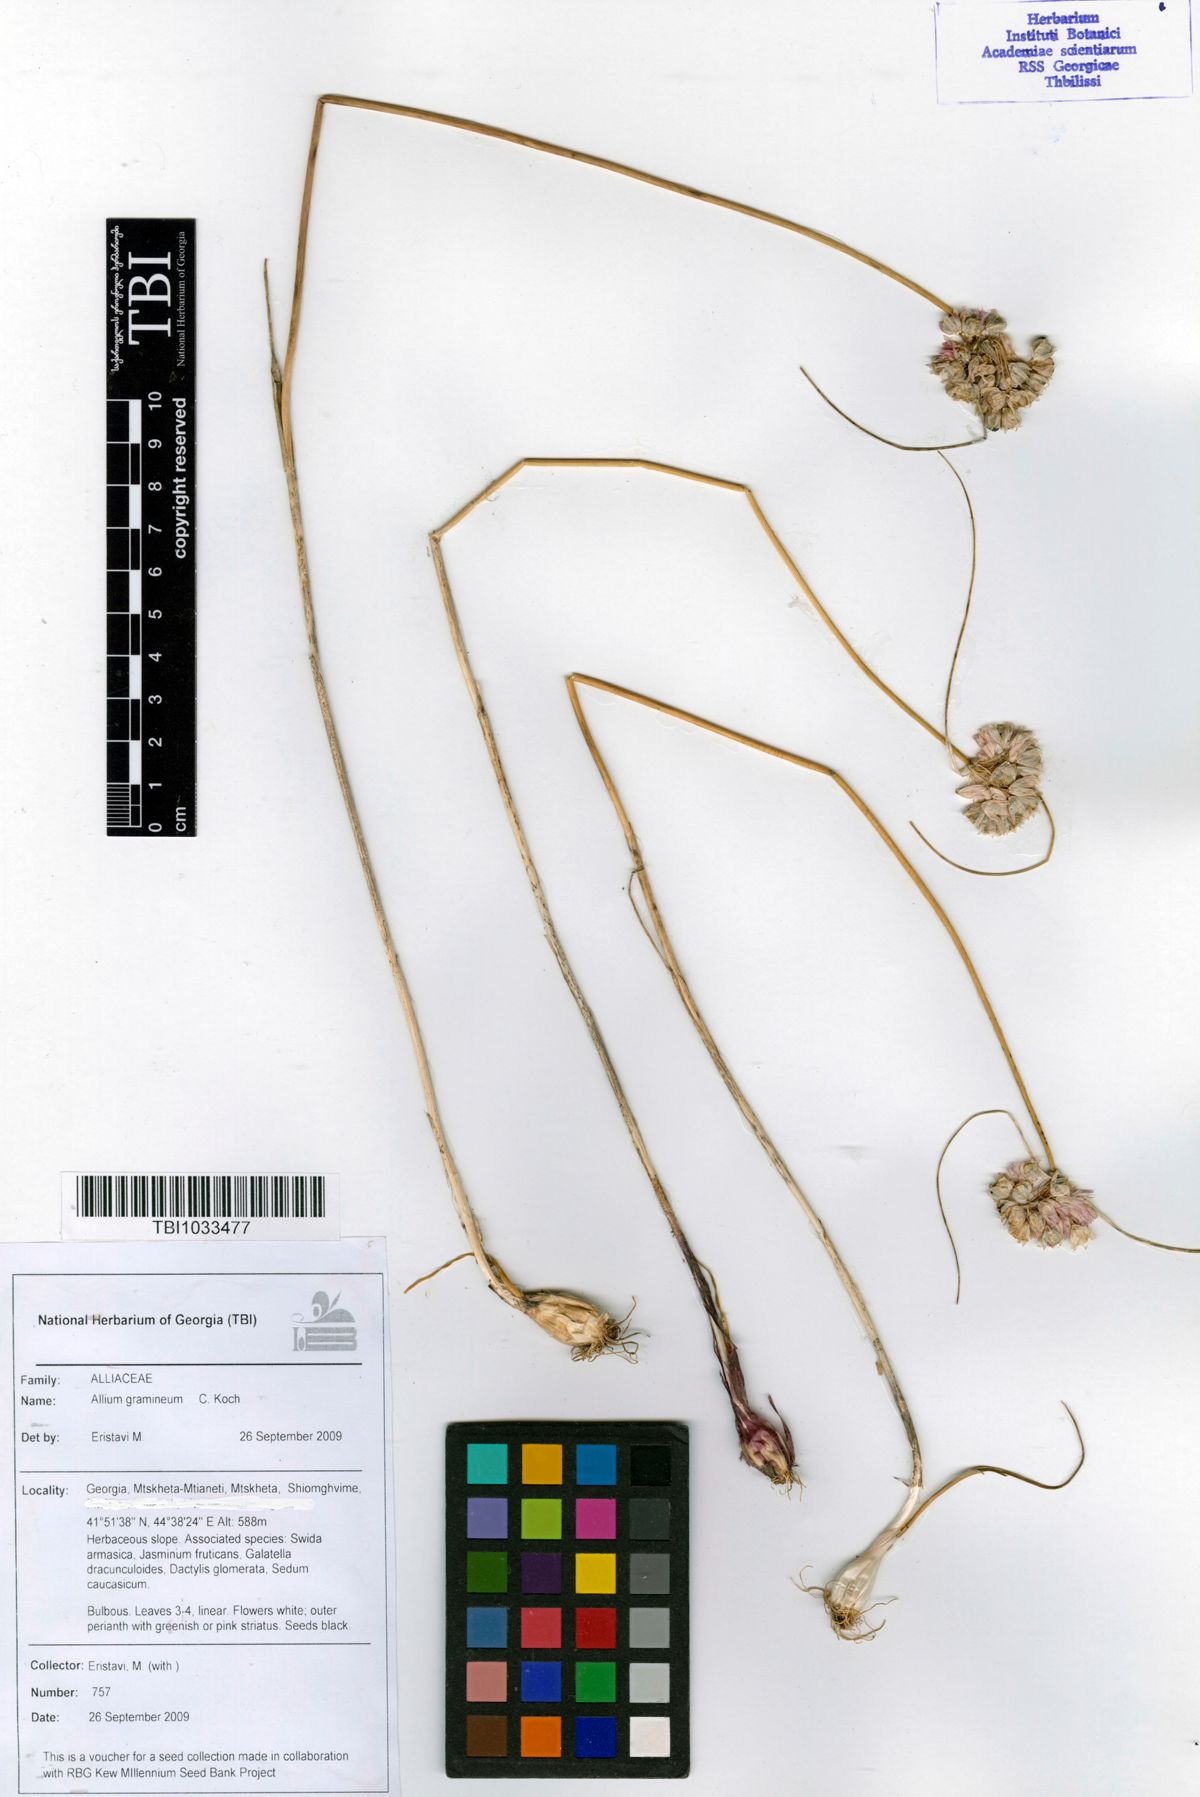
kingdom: Plantae
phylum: Tracheophyta
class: Liliopsida
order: Asparagales
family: Amaryllidaceae
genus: Allium
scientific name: Allium gramineum
